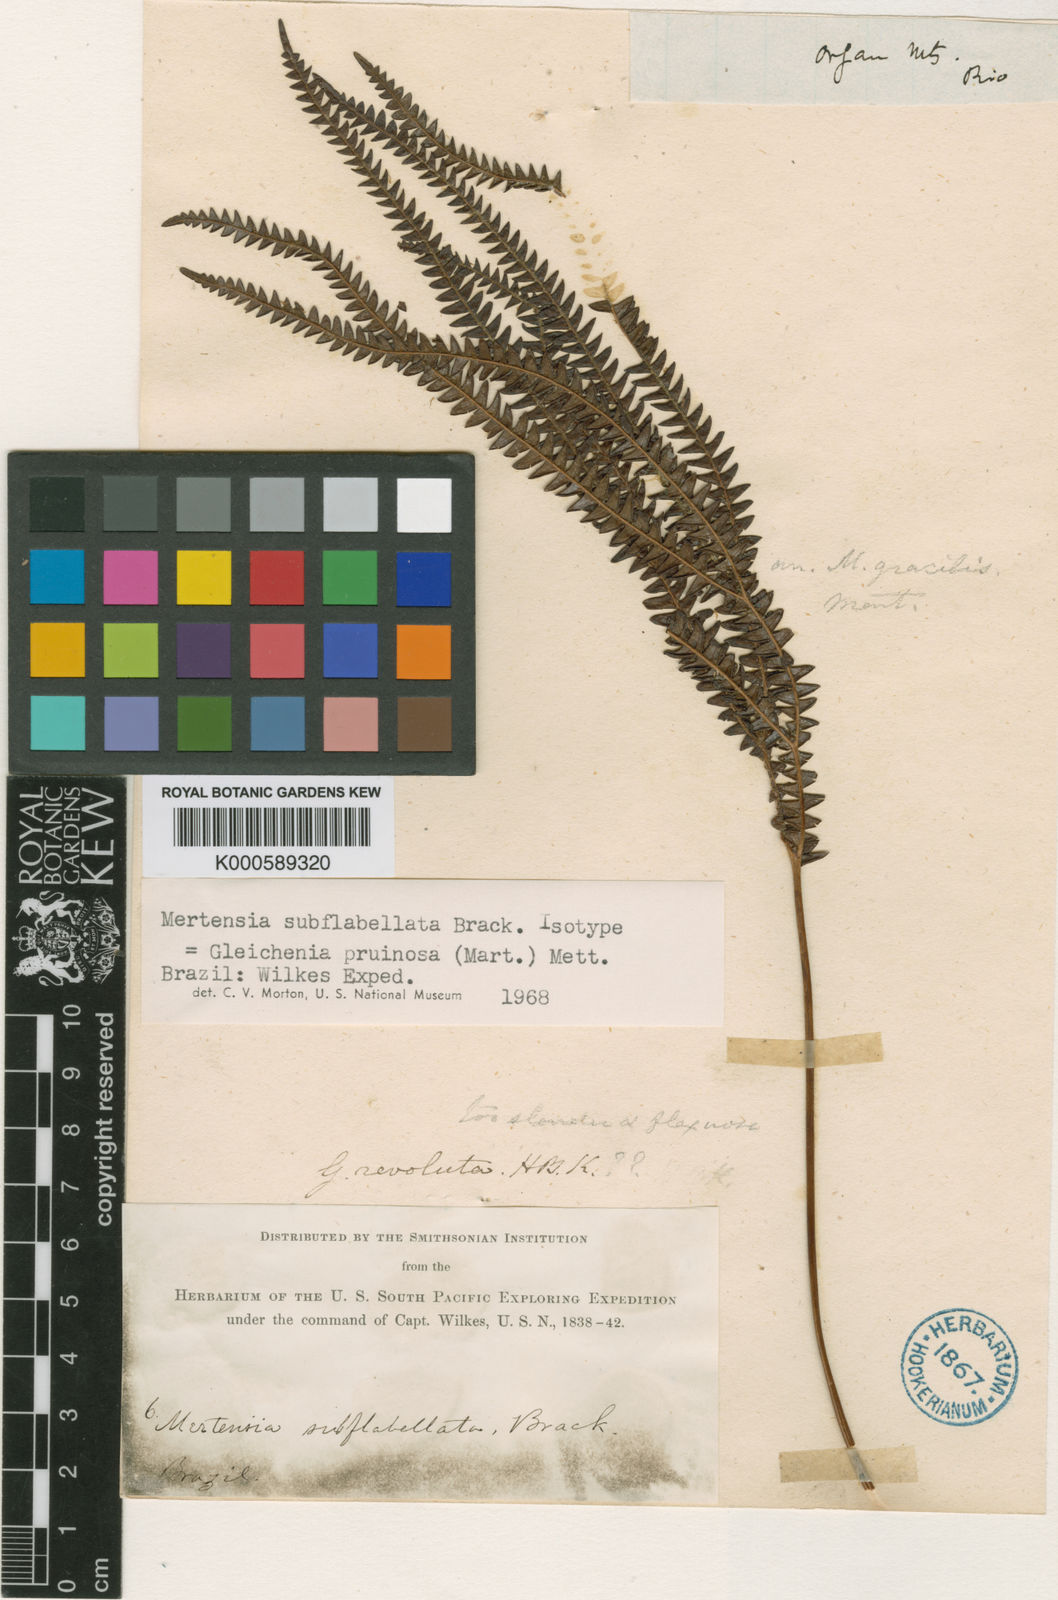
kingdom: Plantae
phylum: Tracheophyta
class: Polypodiopsida
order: Gleicheniales
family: Gleicheniaceae
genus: Sticherus
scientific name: Sticherus pruinosus
